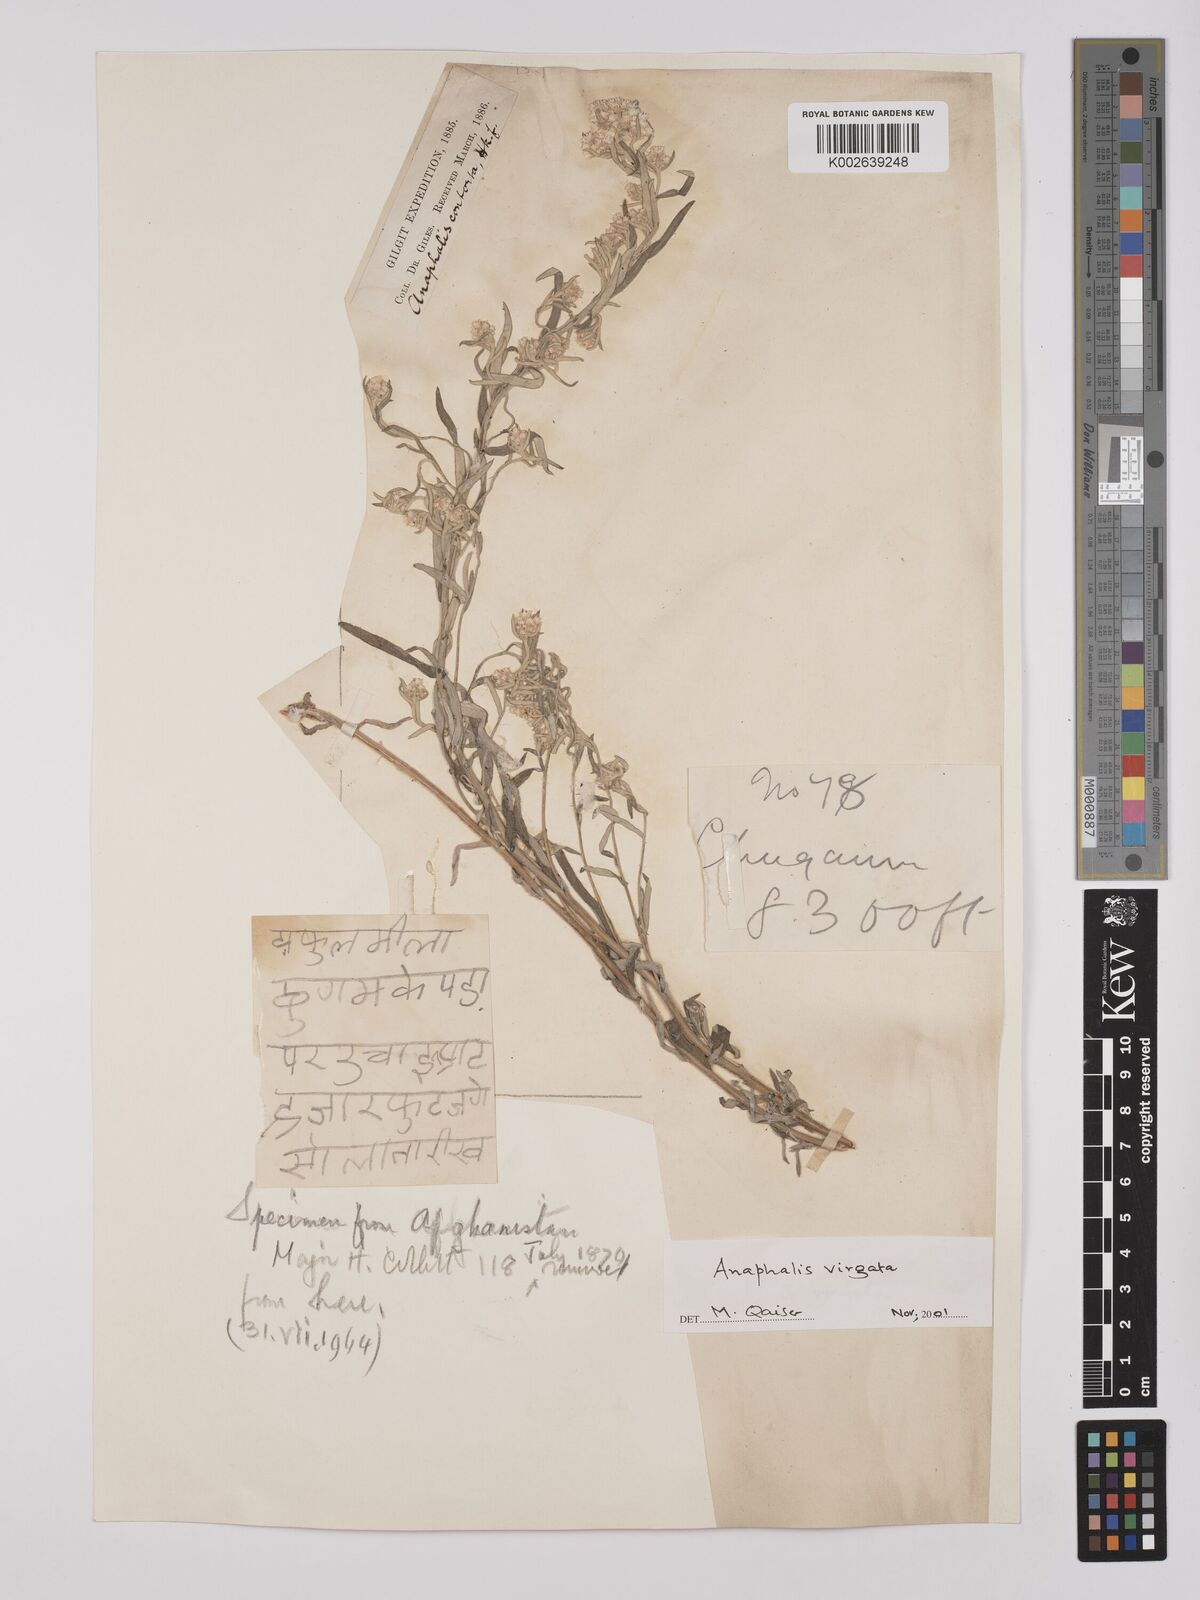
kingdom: Plantae
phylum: Tracheophyta
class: Magnoliopsida
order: Asterales
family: Asteraceae
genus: Anaphalis
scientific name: Anaphalis virgata
